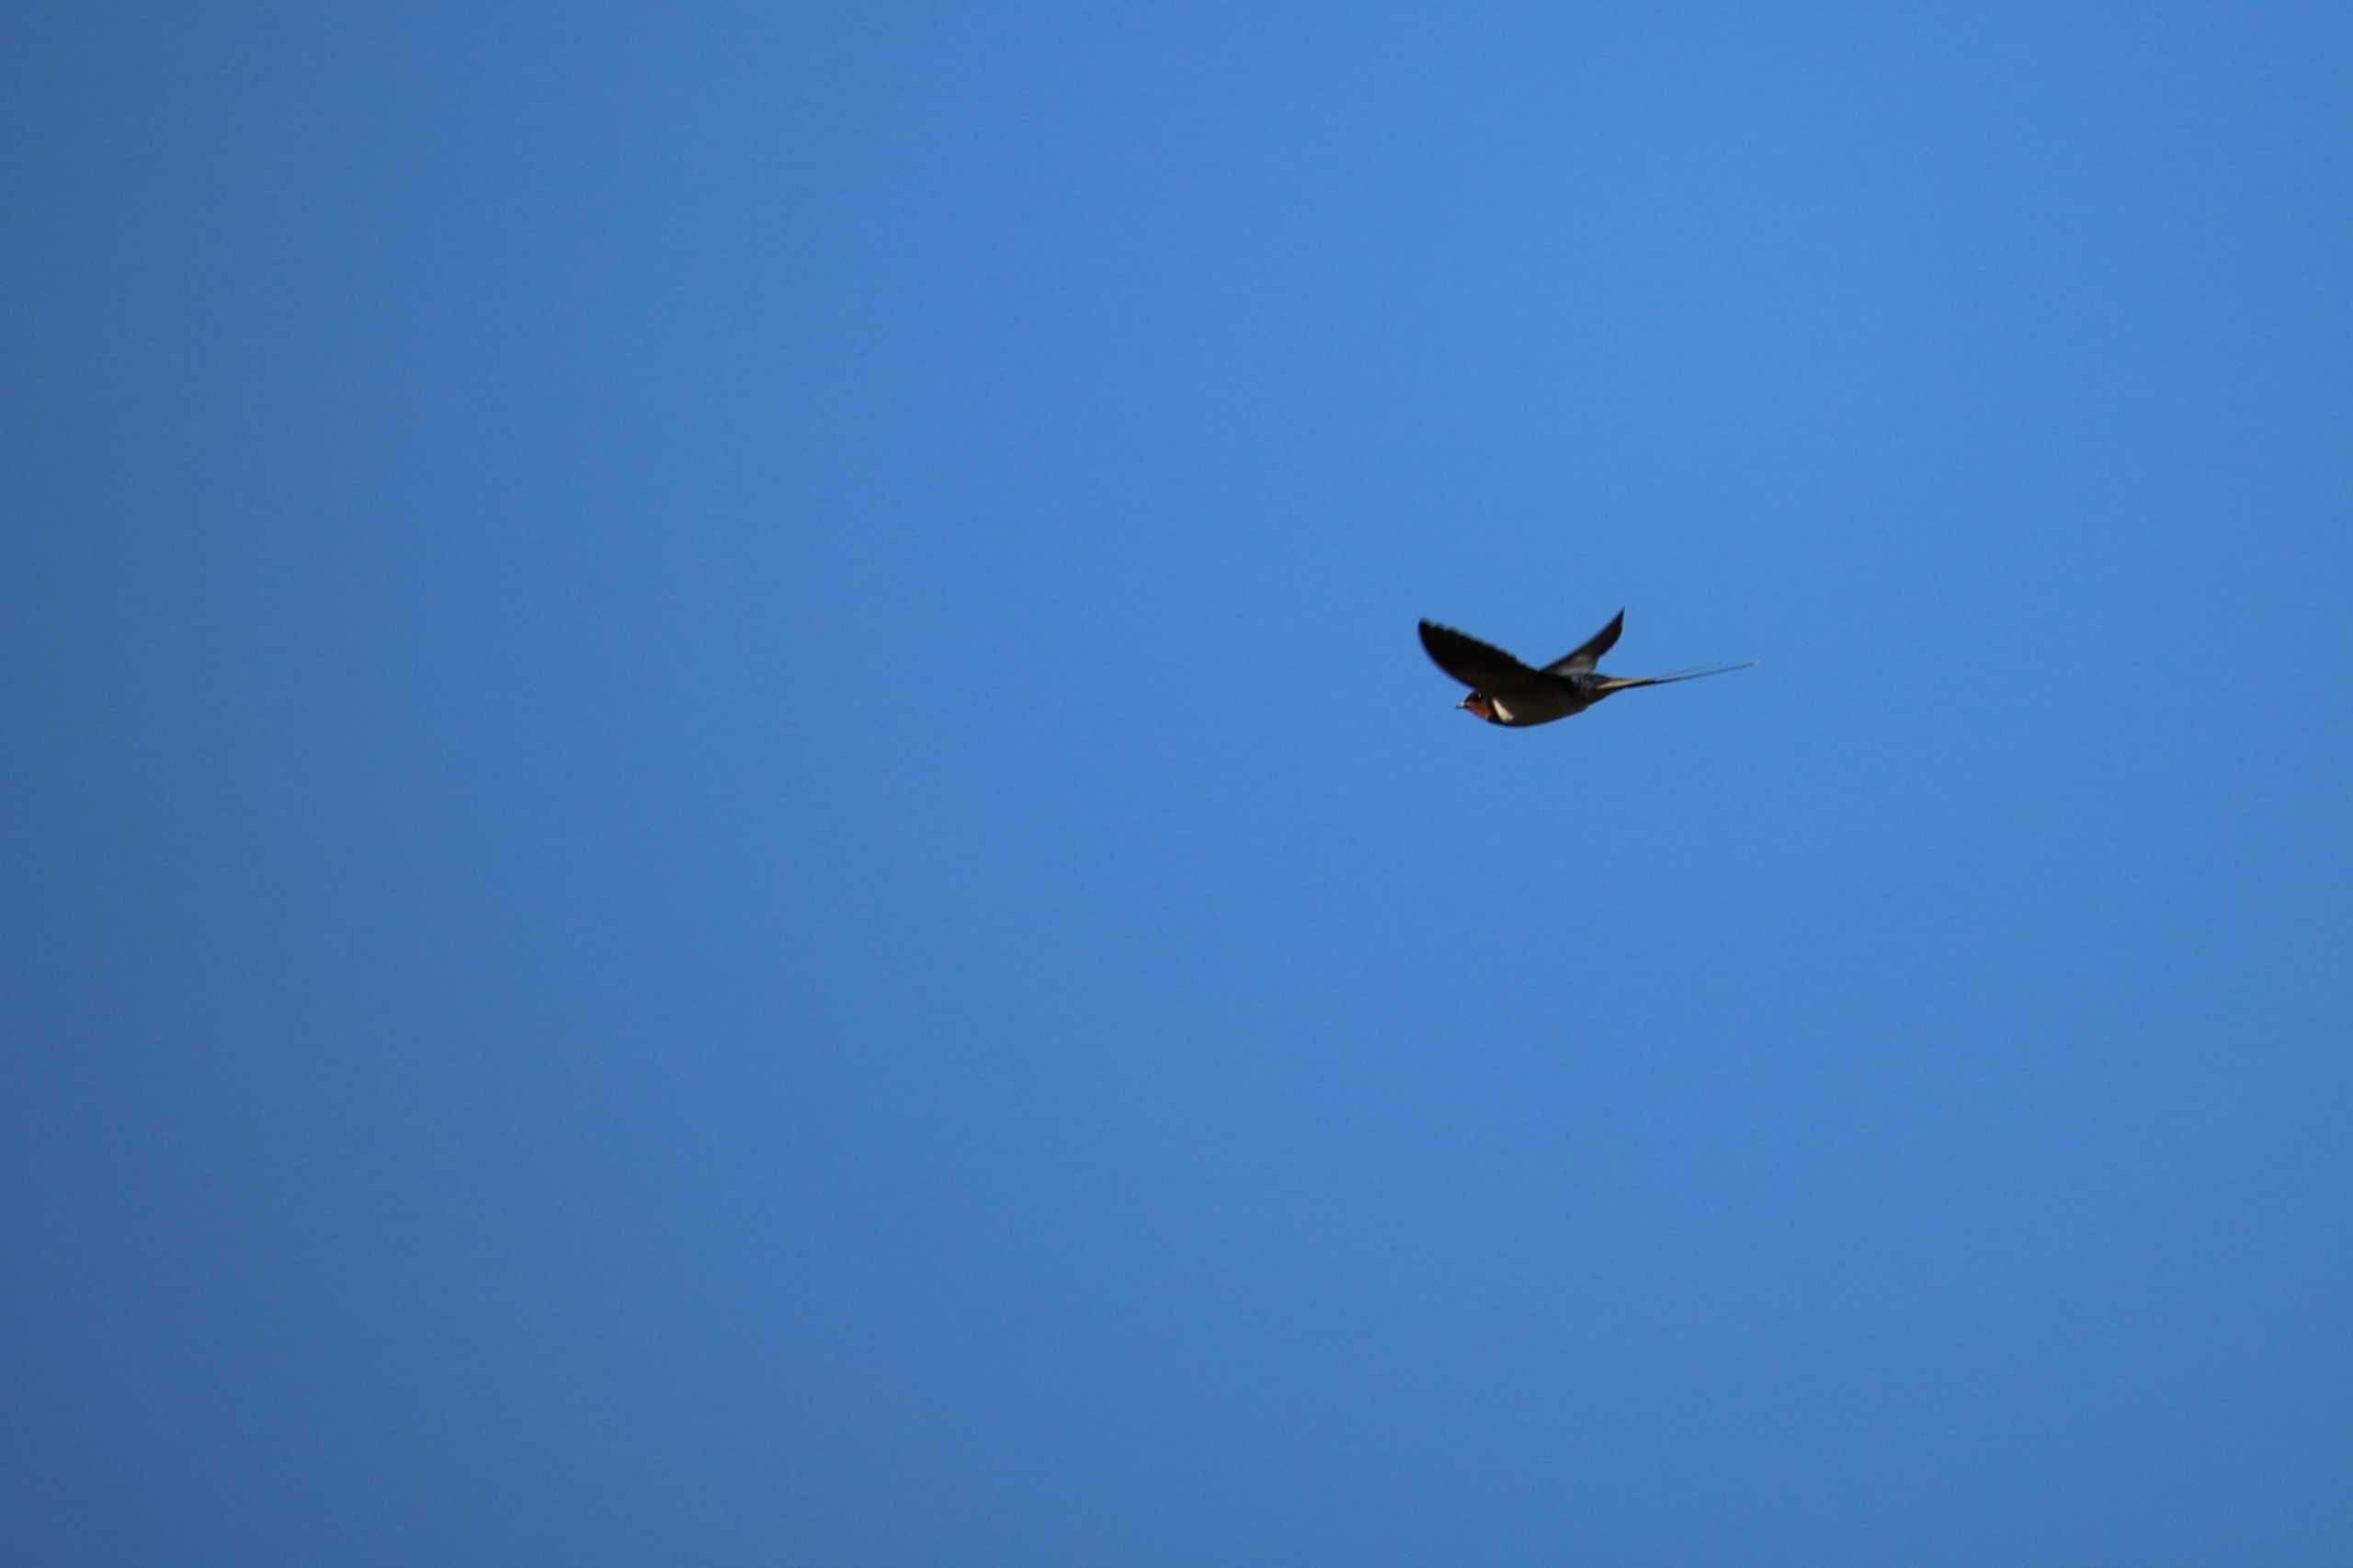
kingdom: Animalia
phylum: Chordata
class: Aves
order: Passeriformes
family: Hirundinidae
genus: Hirundo
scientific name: Hirundo rustica
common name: Landsvale
